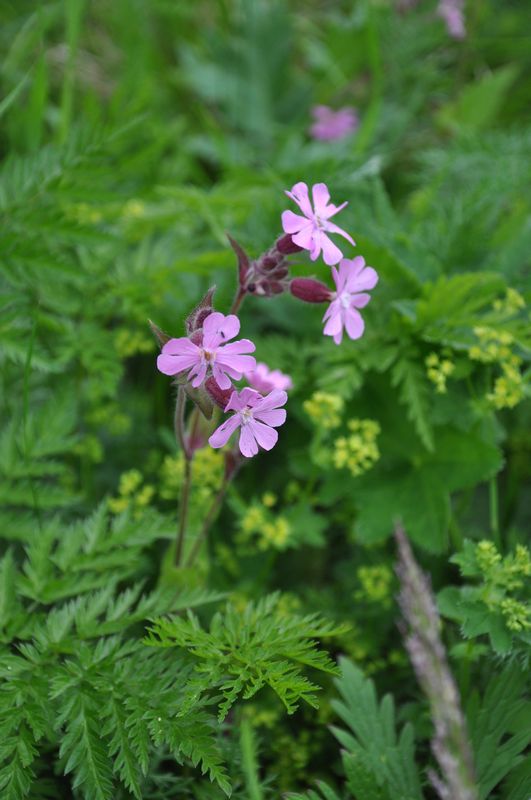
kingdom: Plantae
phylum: Tracheophyta
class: Magnoliopsida
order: Caryophyllales
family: Caryophyllaceae
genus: Silene
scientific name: Silene dioica
